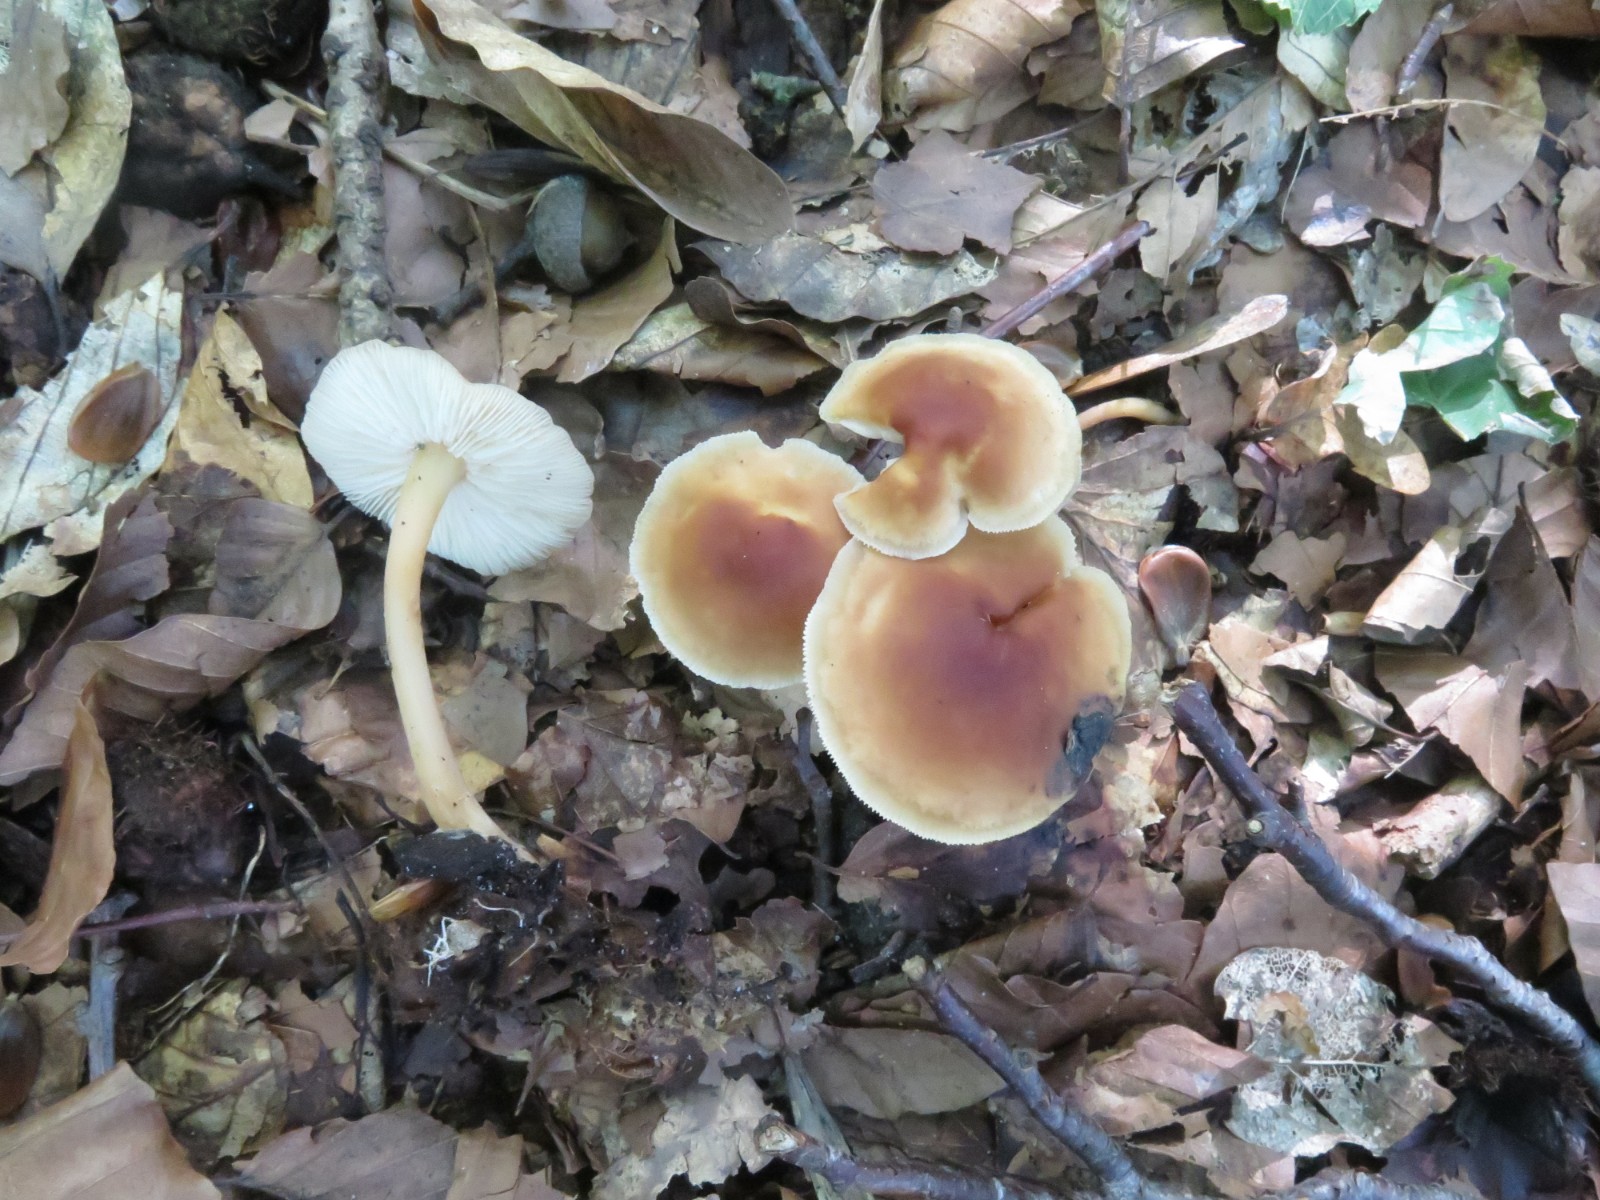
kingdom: Fungi
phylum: Basidiomycota
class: Agaricomycetes
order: Agaricales
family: Omphalotaceae
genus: Gymnopus
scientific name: Gymnopus dryophilus
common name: løv-fladhat
